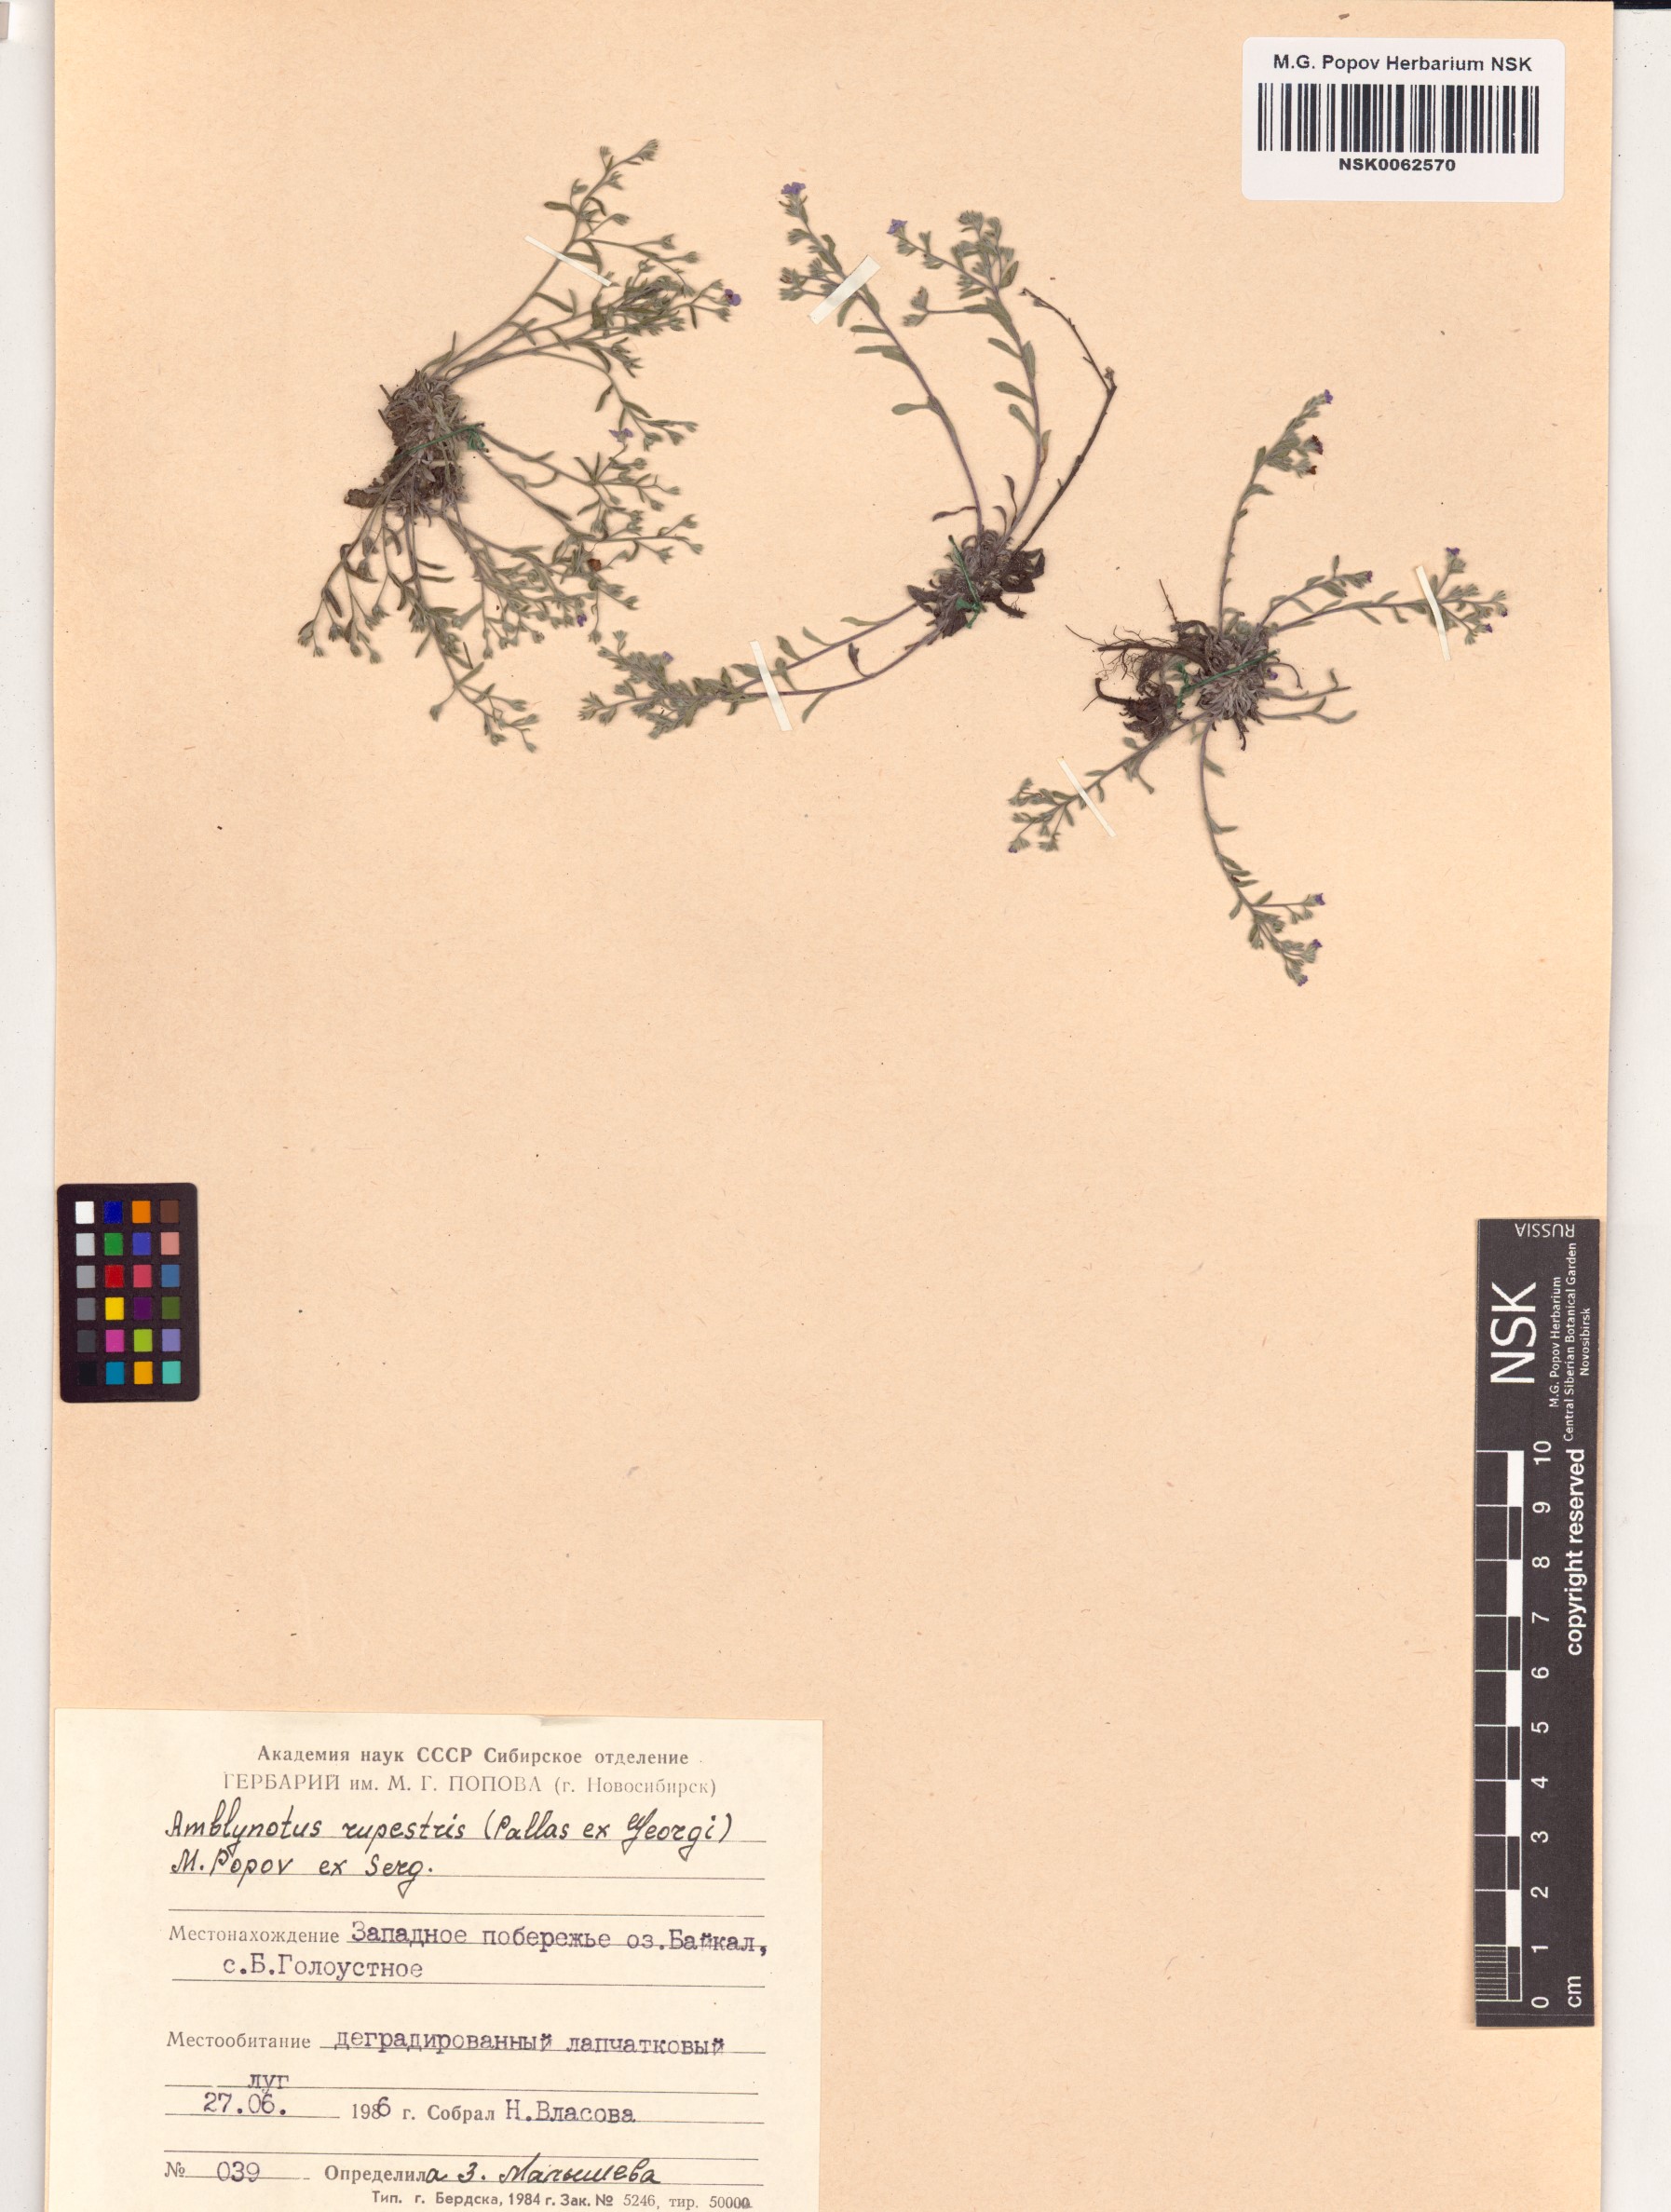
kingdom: Plantae
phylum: Tracheophyta
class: Magnoliopsida
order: Boraginales
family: Boraginaceae
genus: Eritrichium
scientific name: Eritrichium rupestre
